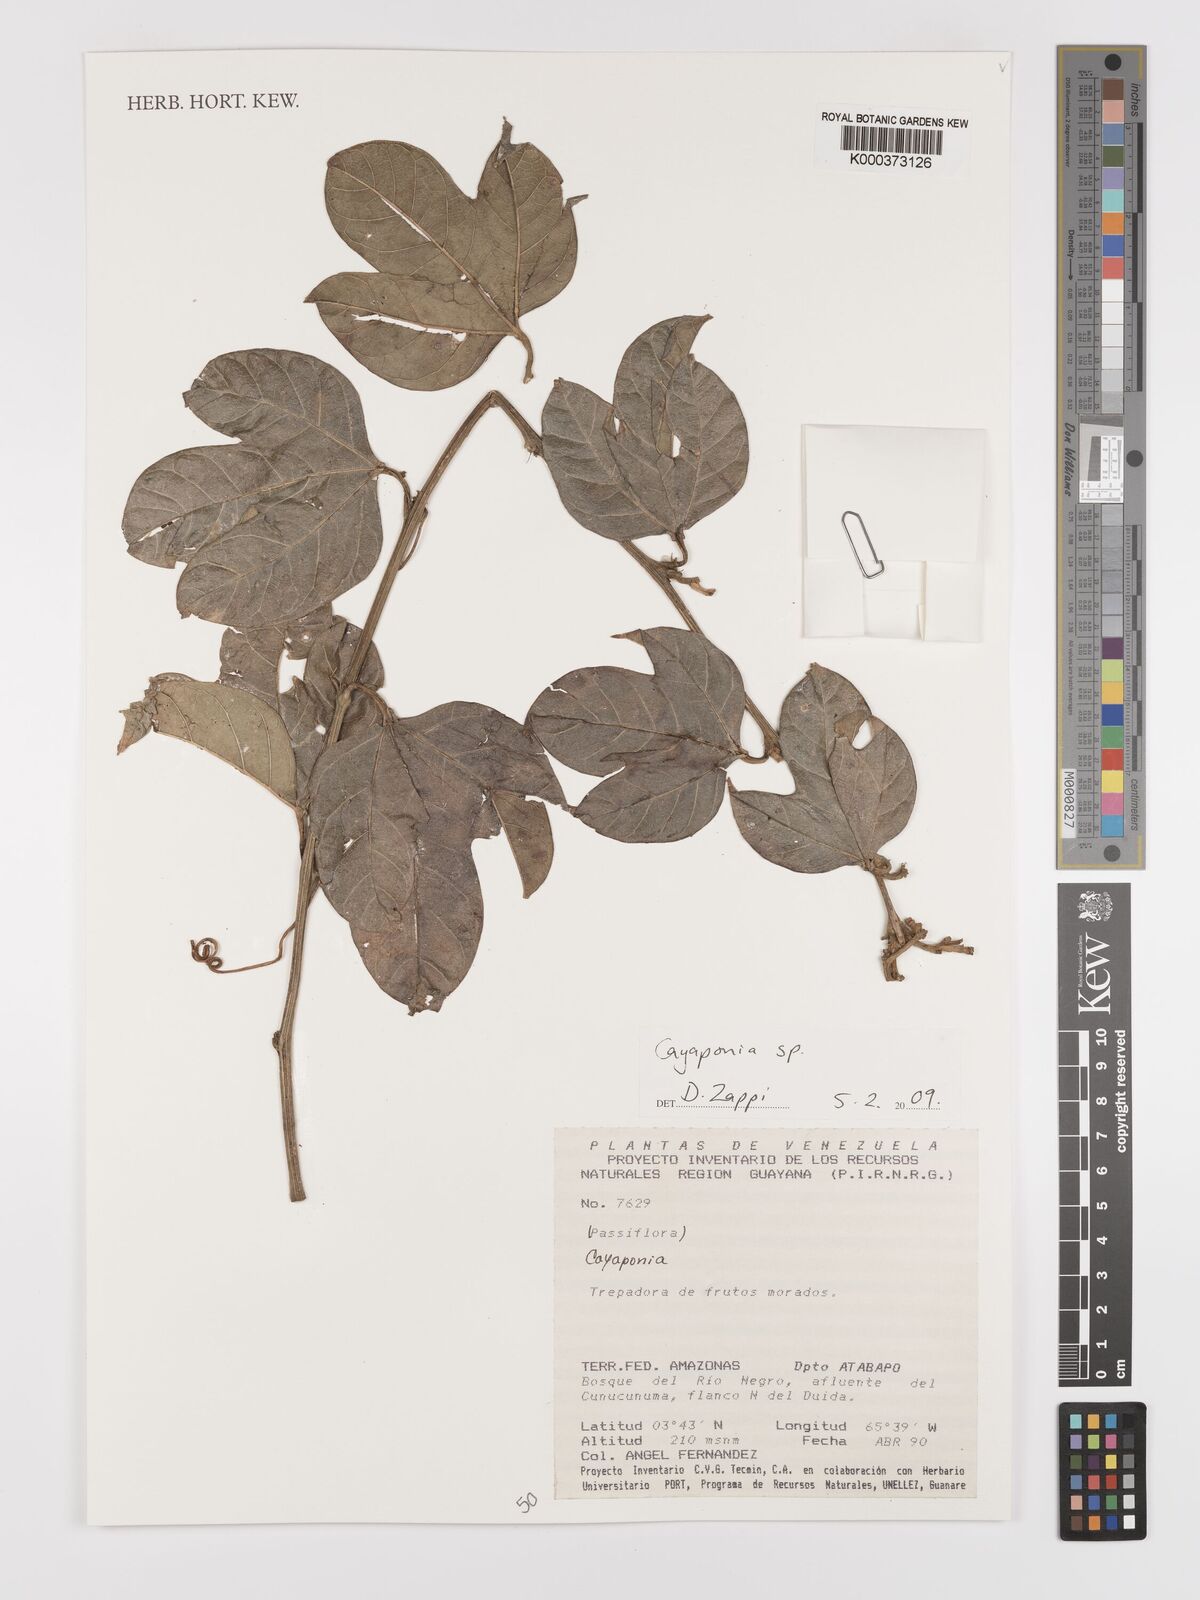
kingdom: Plantae
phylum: Tracheophyta
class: Magnoliopsida
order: Cucurbitales
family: Cucurbitaceae
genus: Cayaponia
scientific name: Cayaponia
